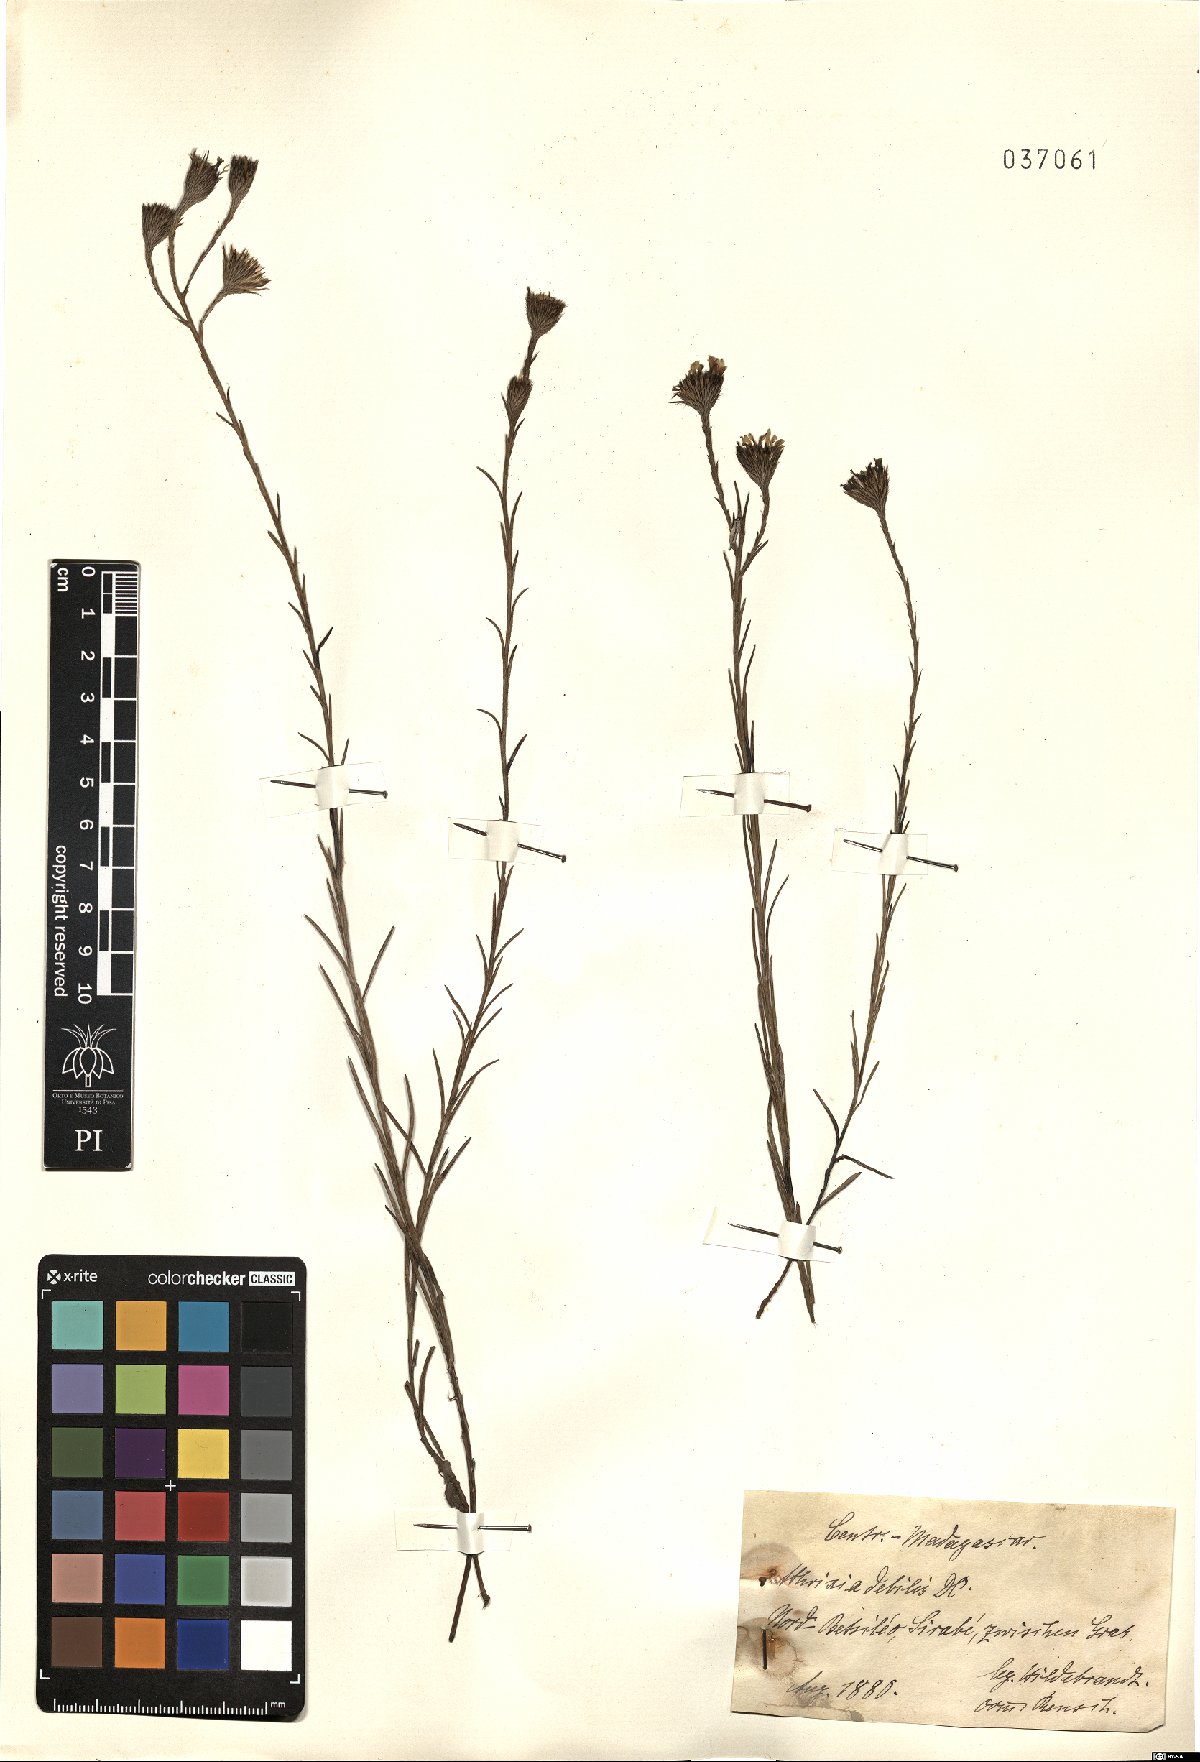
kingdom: Plantae
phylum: Tracheophyta
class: Magnoliopsida
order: Asterales
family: Asteraceae
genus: Athrixia
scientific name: Athrixia debilis
